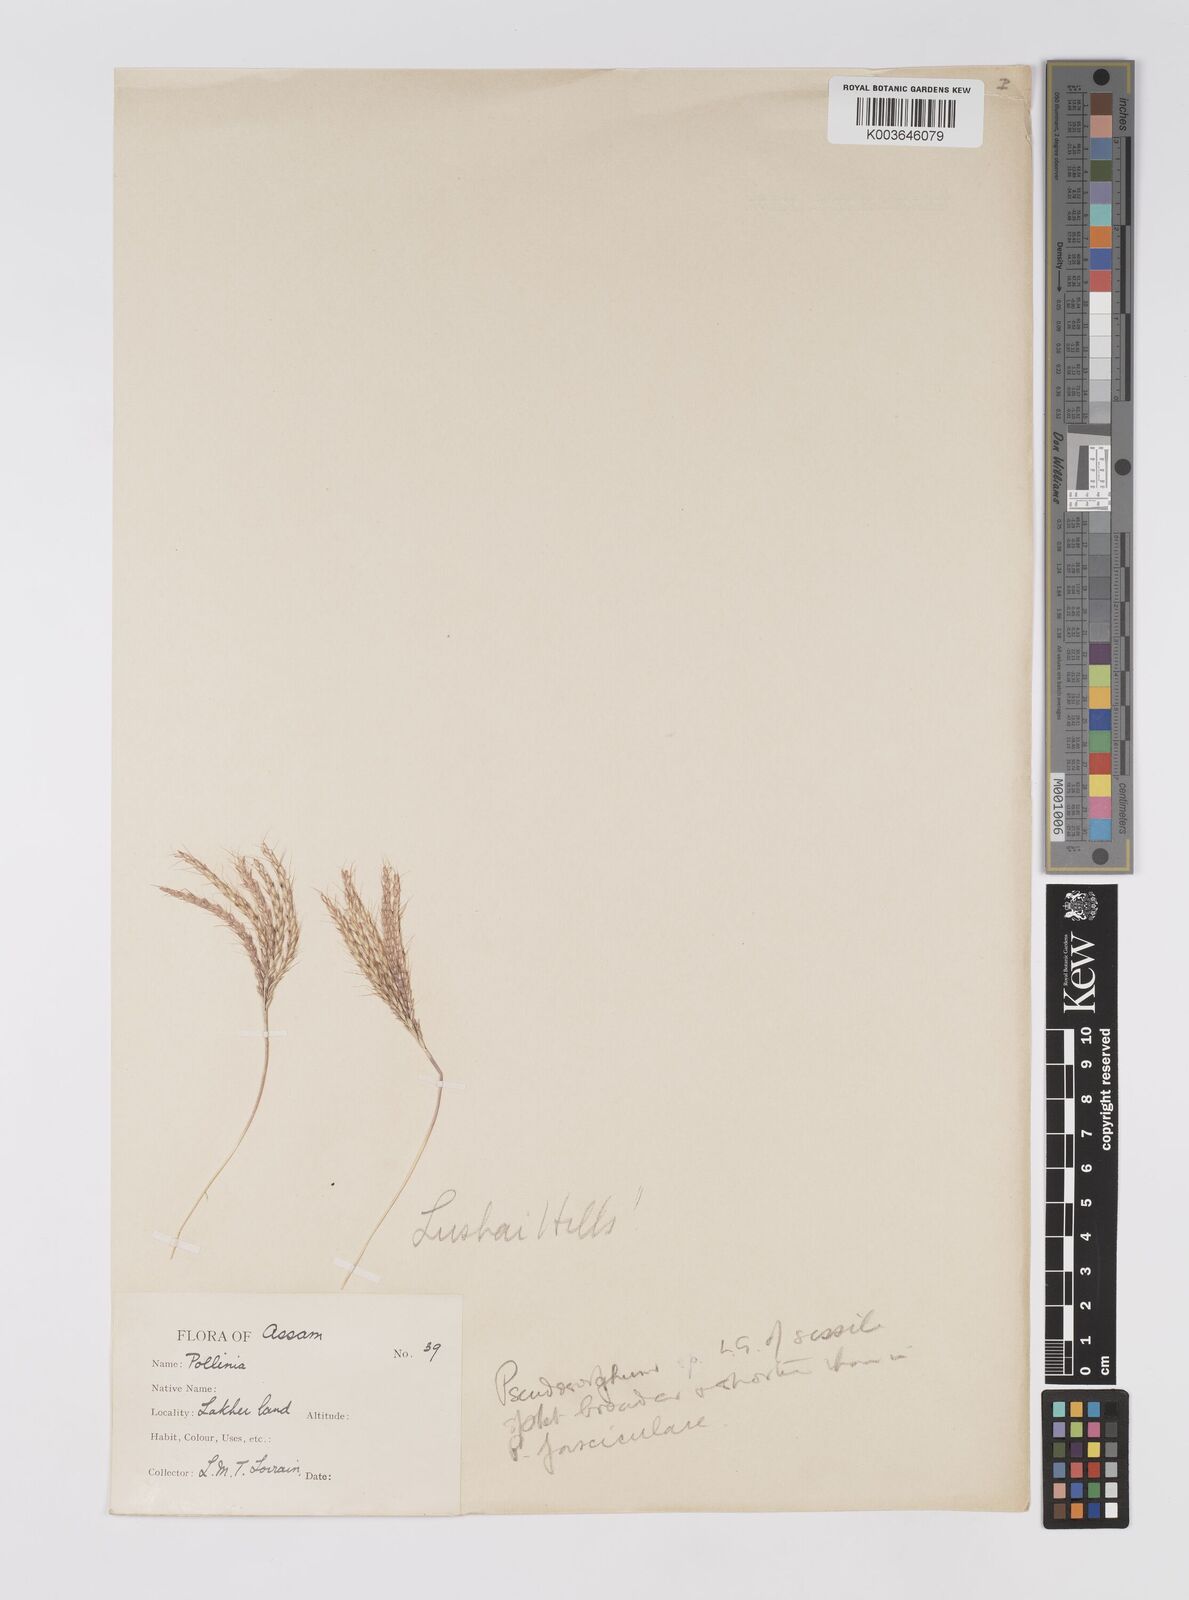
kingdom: Plantae
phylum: Tracheophyta
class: Liliopsida
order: Poales
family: Poaceae
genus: Apocopis
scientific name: Apocopis
